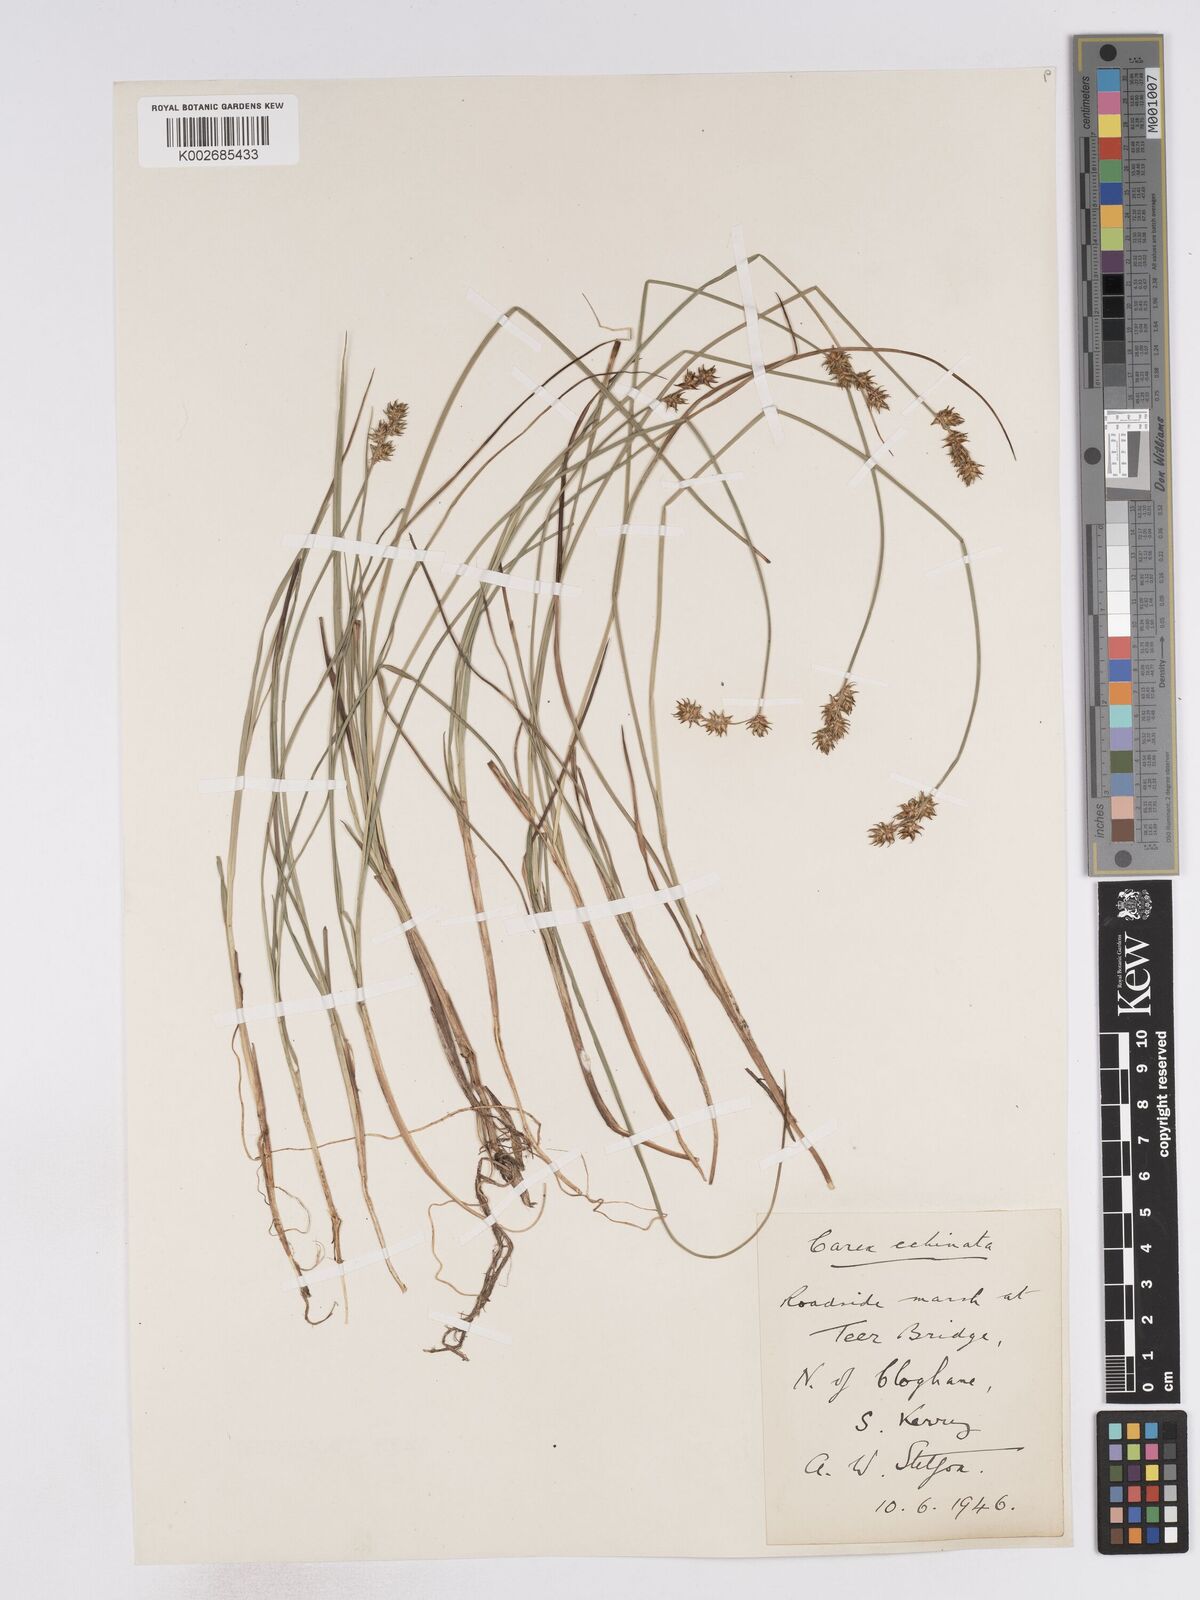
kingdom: Plantae
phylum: Tracheophyta
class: Liliopsida
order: Poales
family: Cyperaceae
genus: Carex
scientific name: Carex echinata
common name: Star sedge
